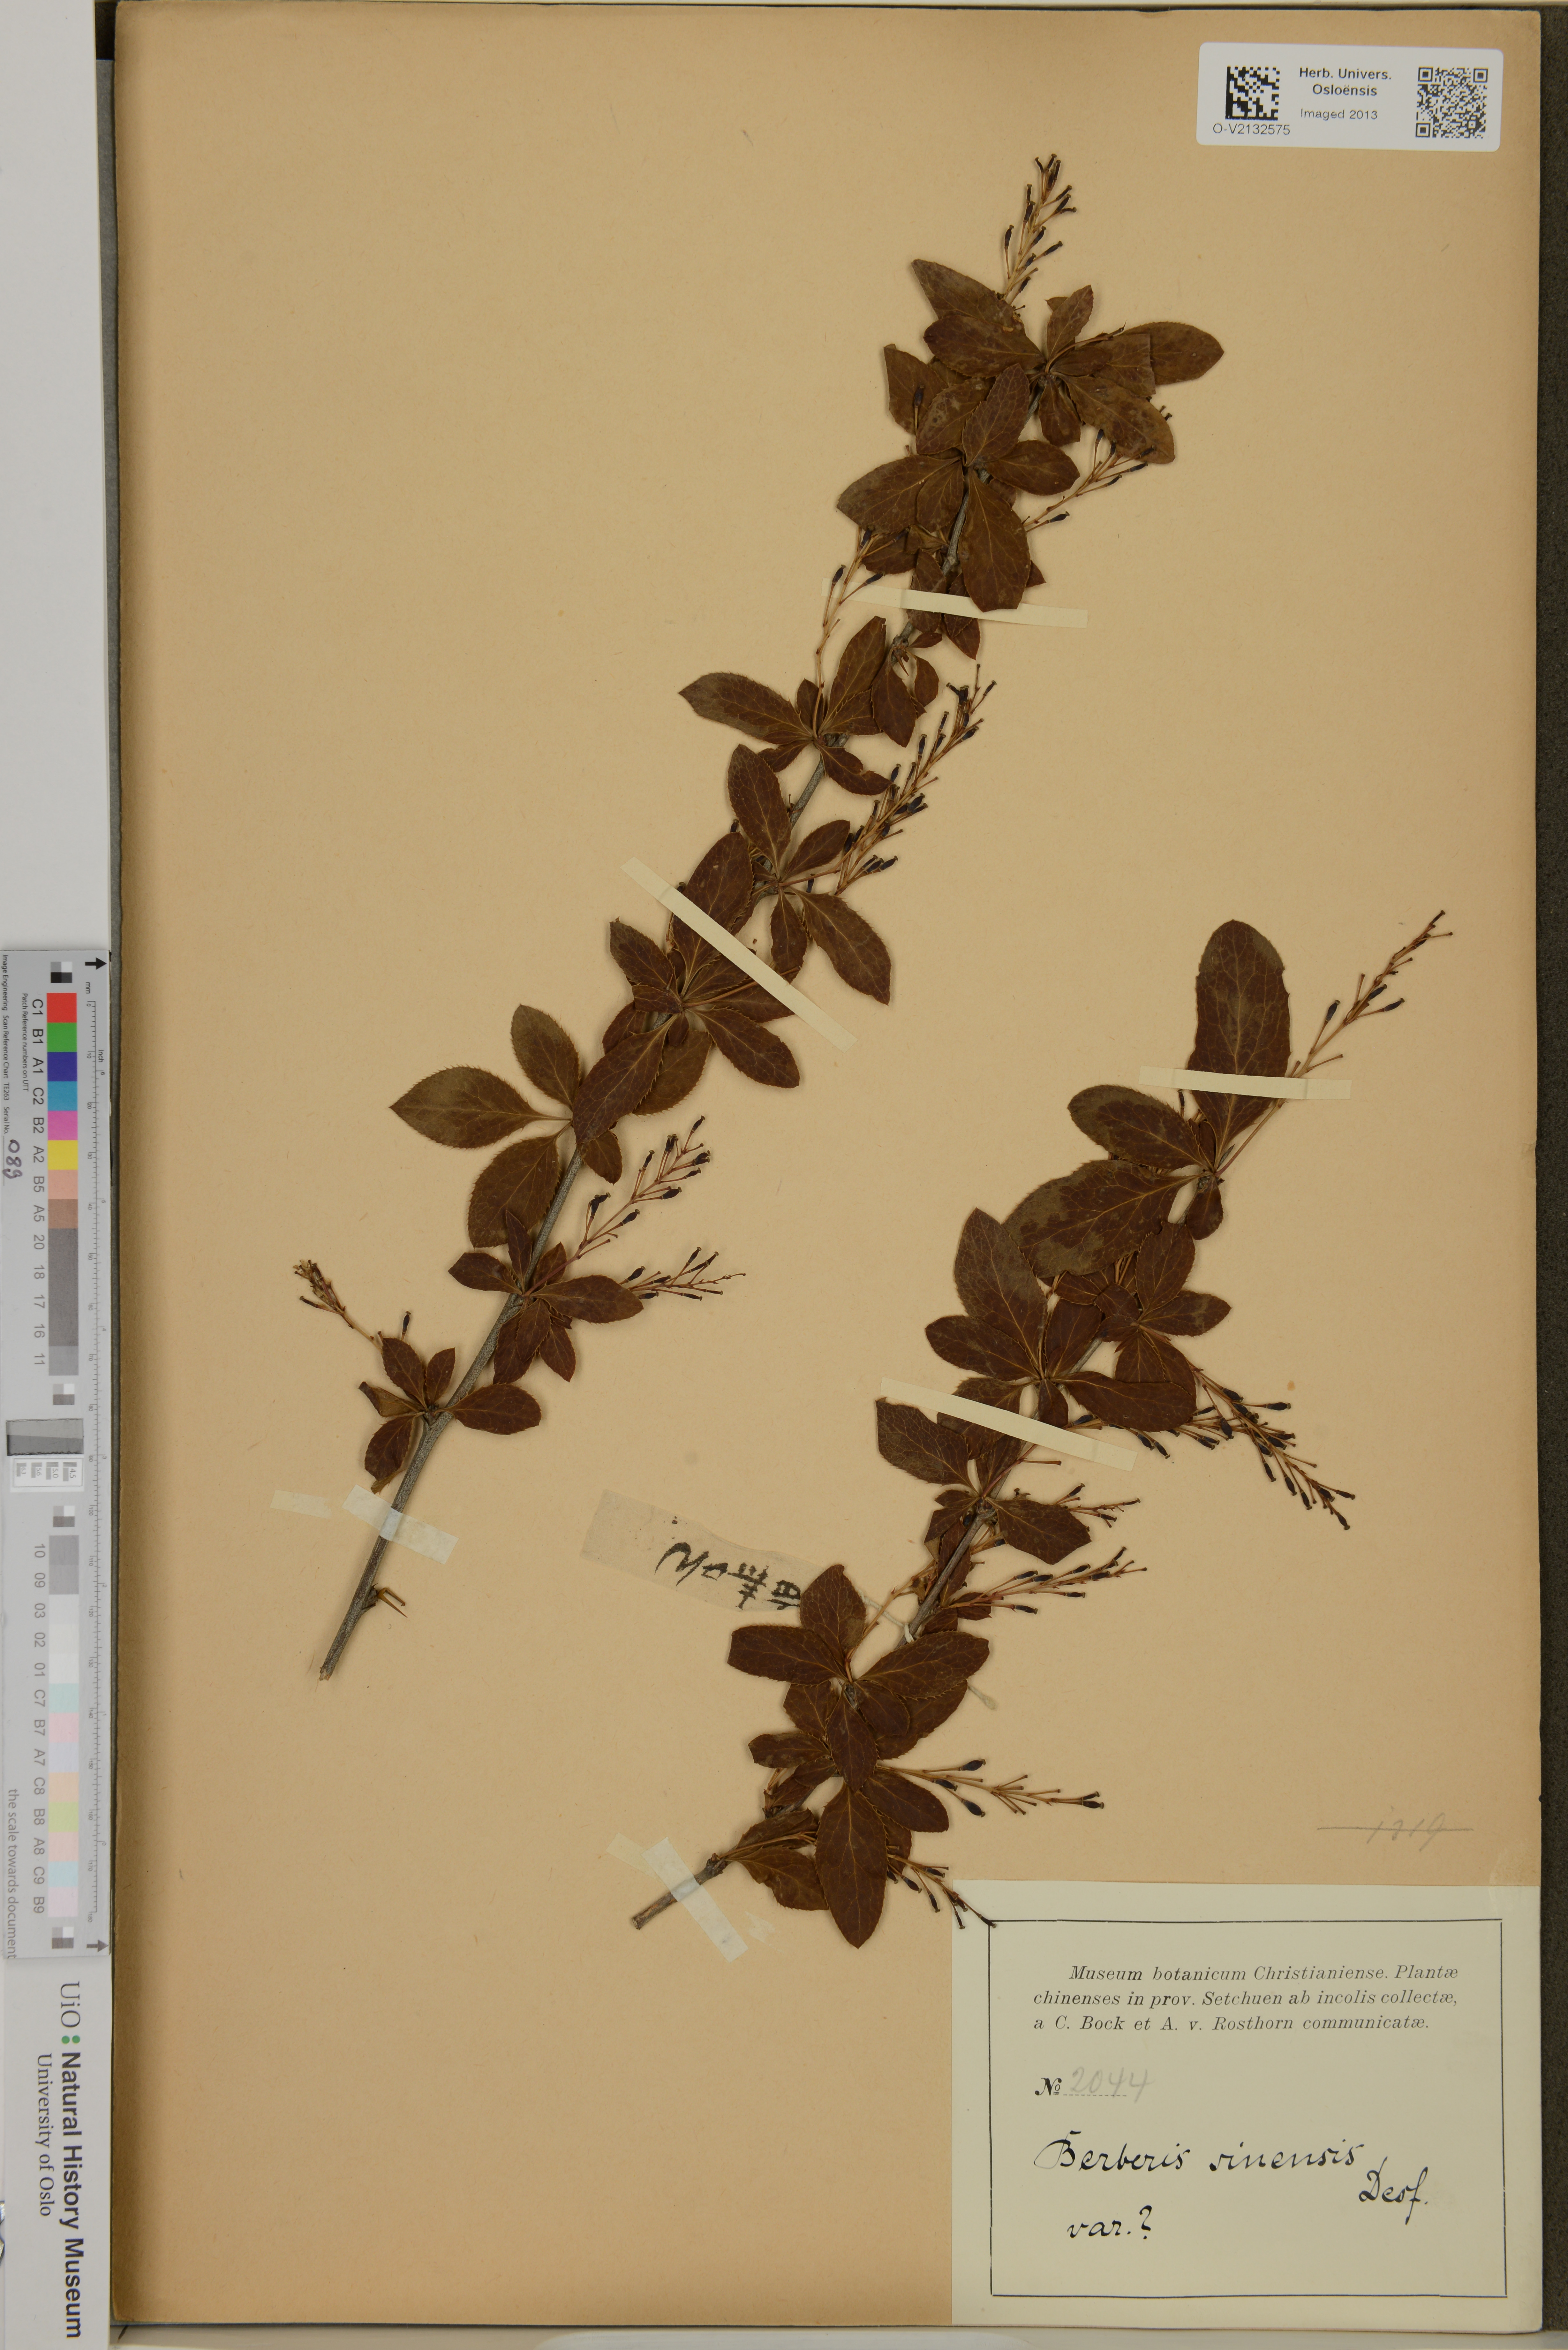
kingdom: Plantae
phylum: Tracheophyta
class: Magnoliopsida
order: Ranunculales
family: Berberidaceae
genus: Berberis
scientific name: Berberis chinensis
